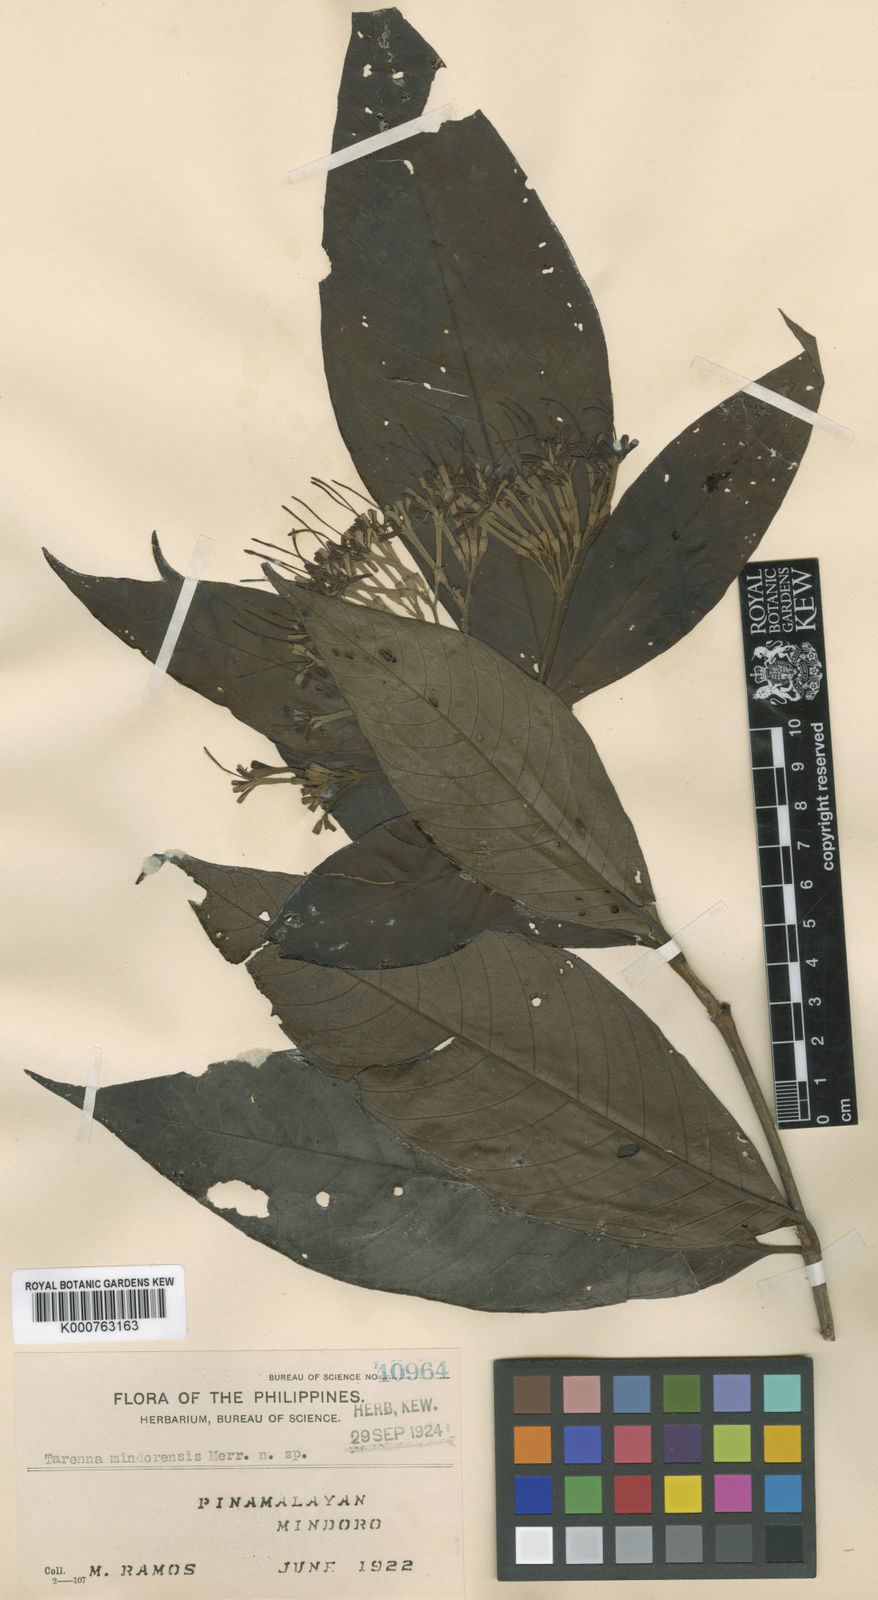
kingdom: Plantae
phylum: Tracheophyta
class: Magnoliopsida
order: Gentianales
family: Rubiaceae
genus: Tarenna
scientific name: Tarenna
